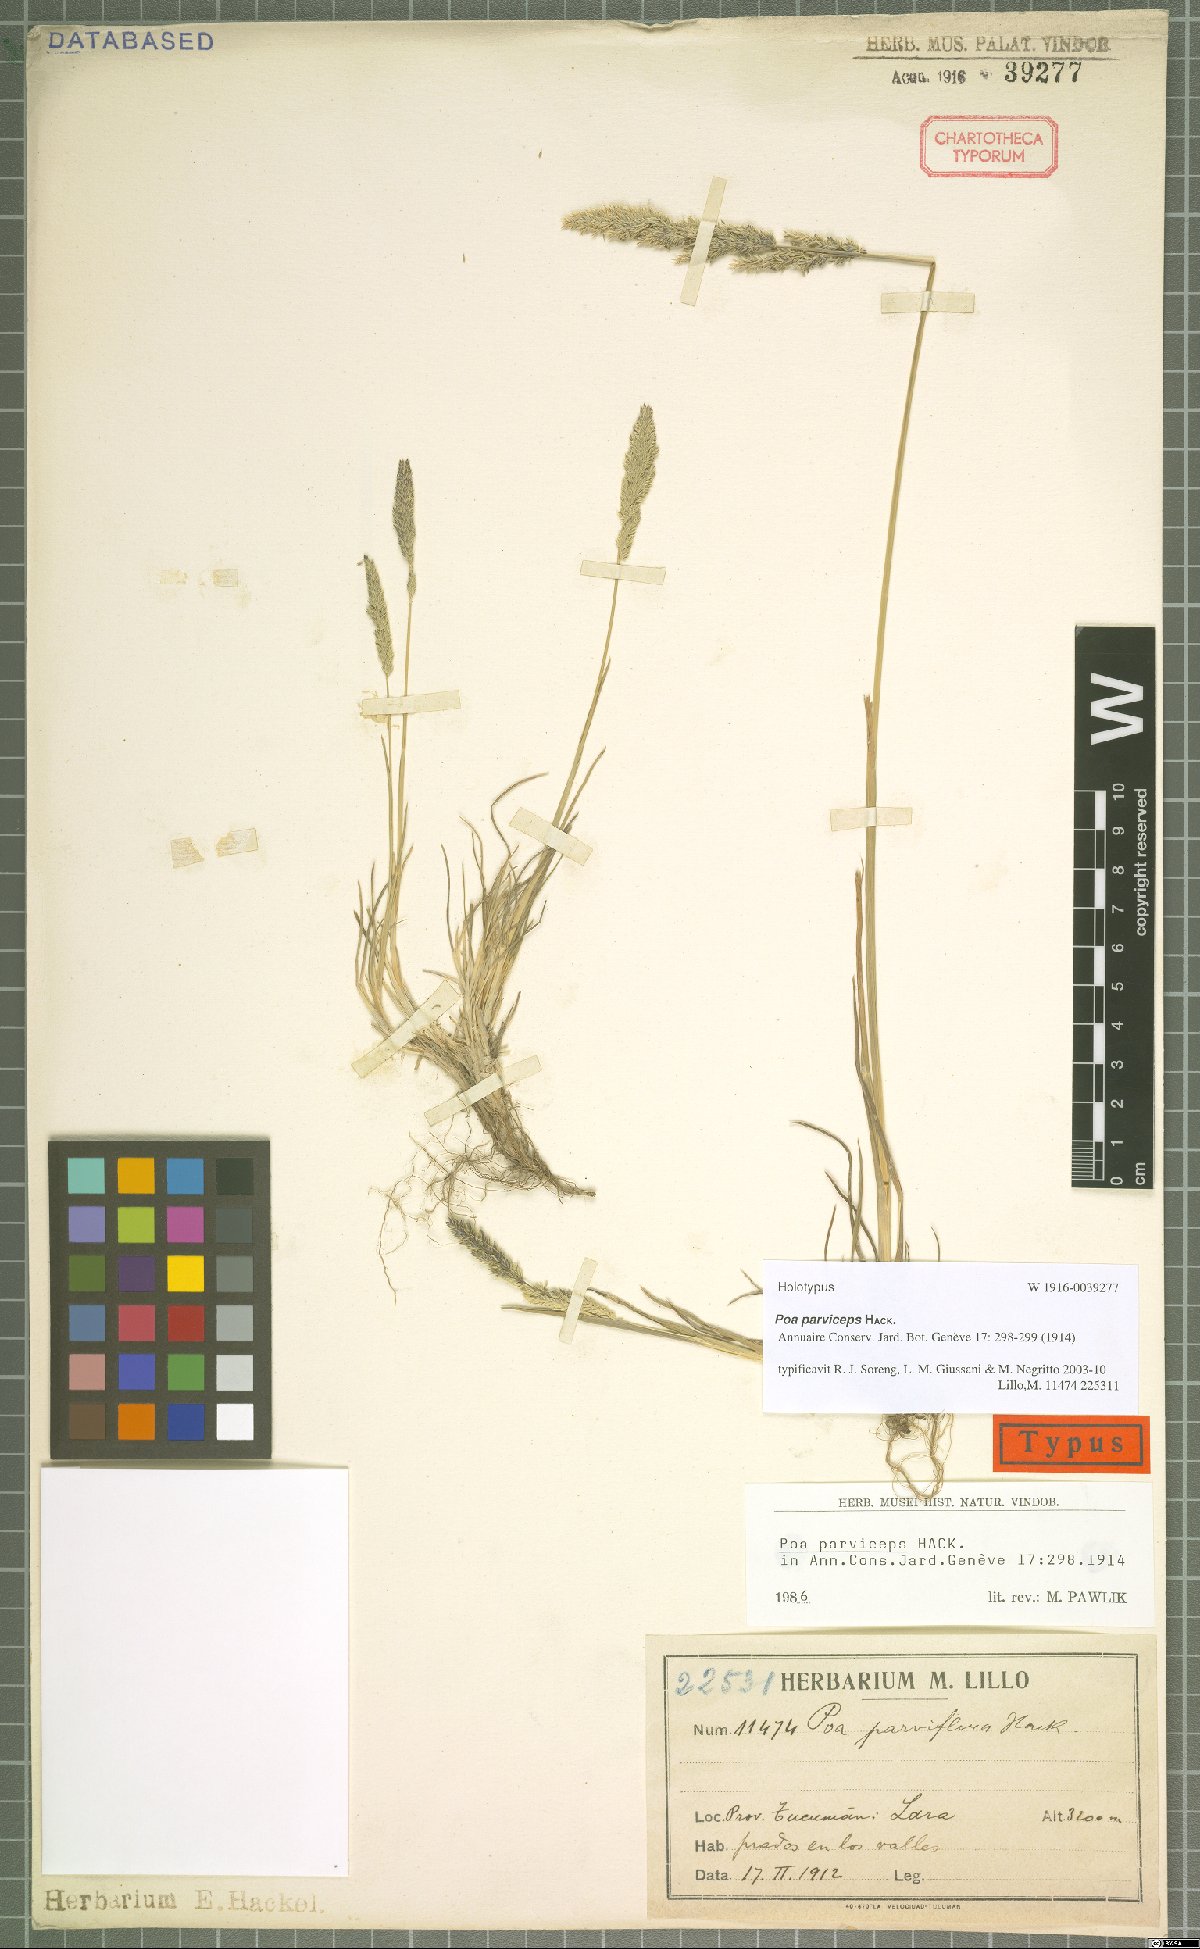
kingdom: Plantae
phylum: Tracheophyta
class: Liliopsida
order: Poales
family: Poaceae
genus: Poa
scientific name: Poa scaberula
